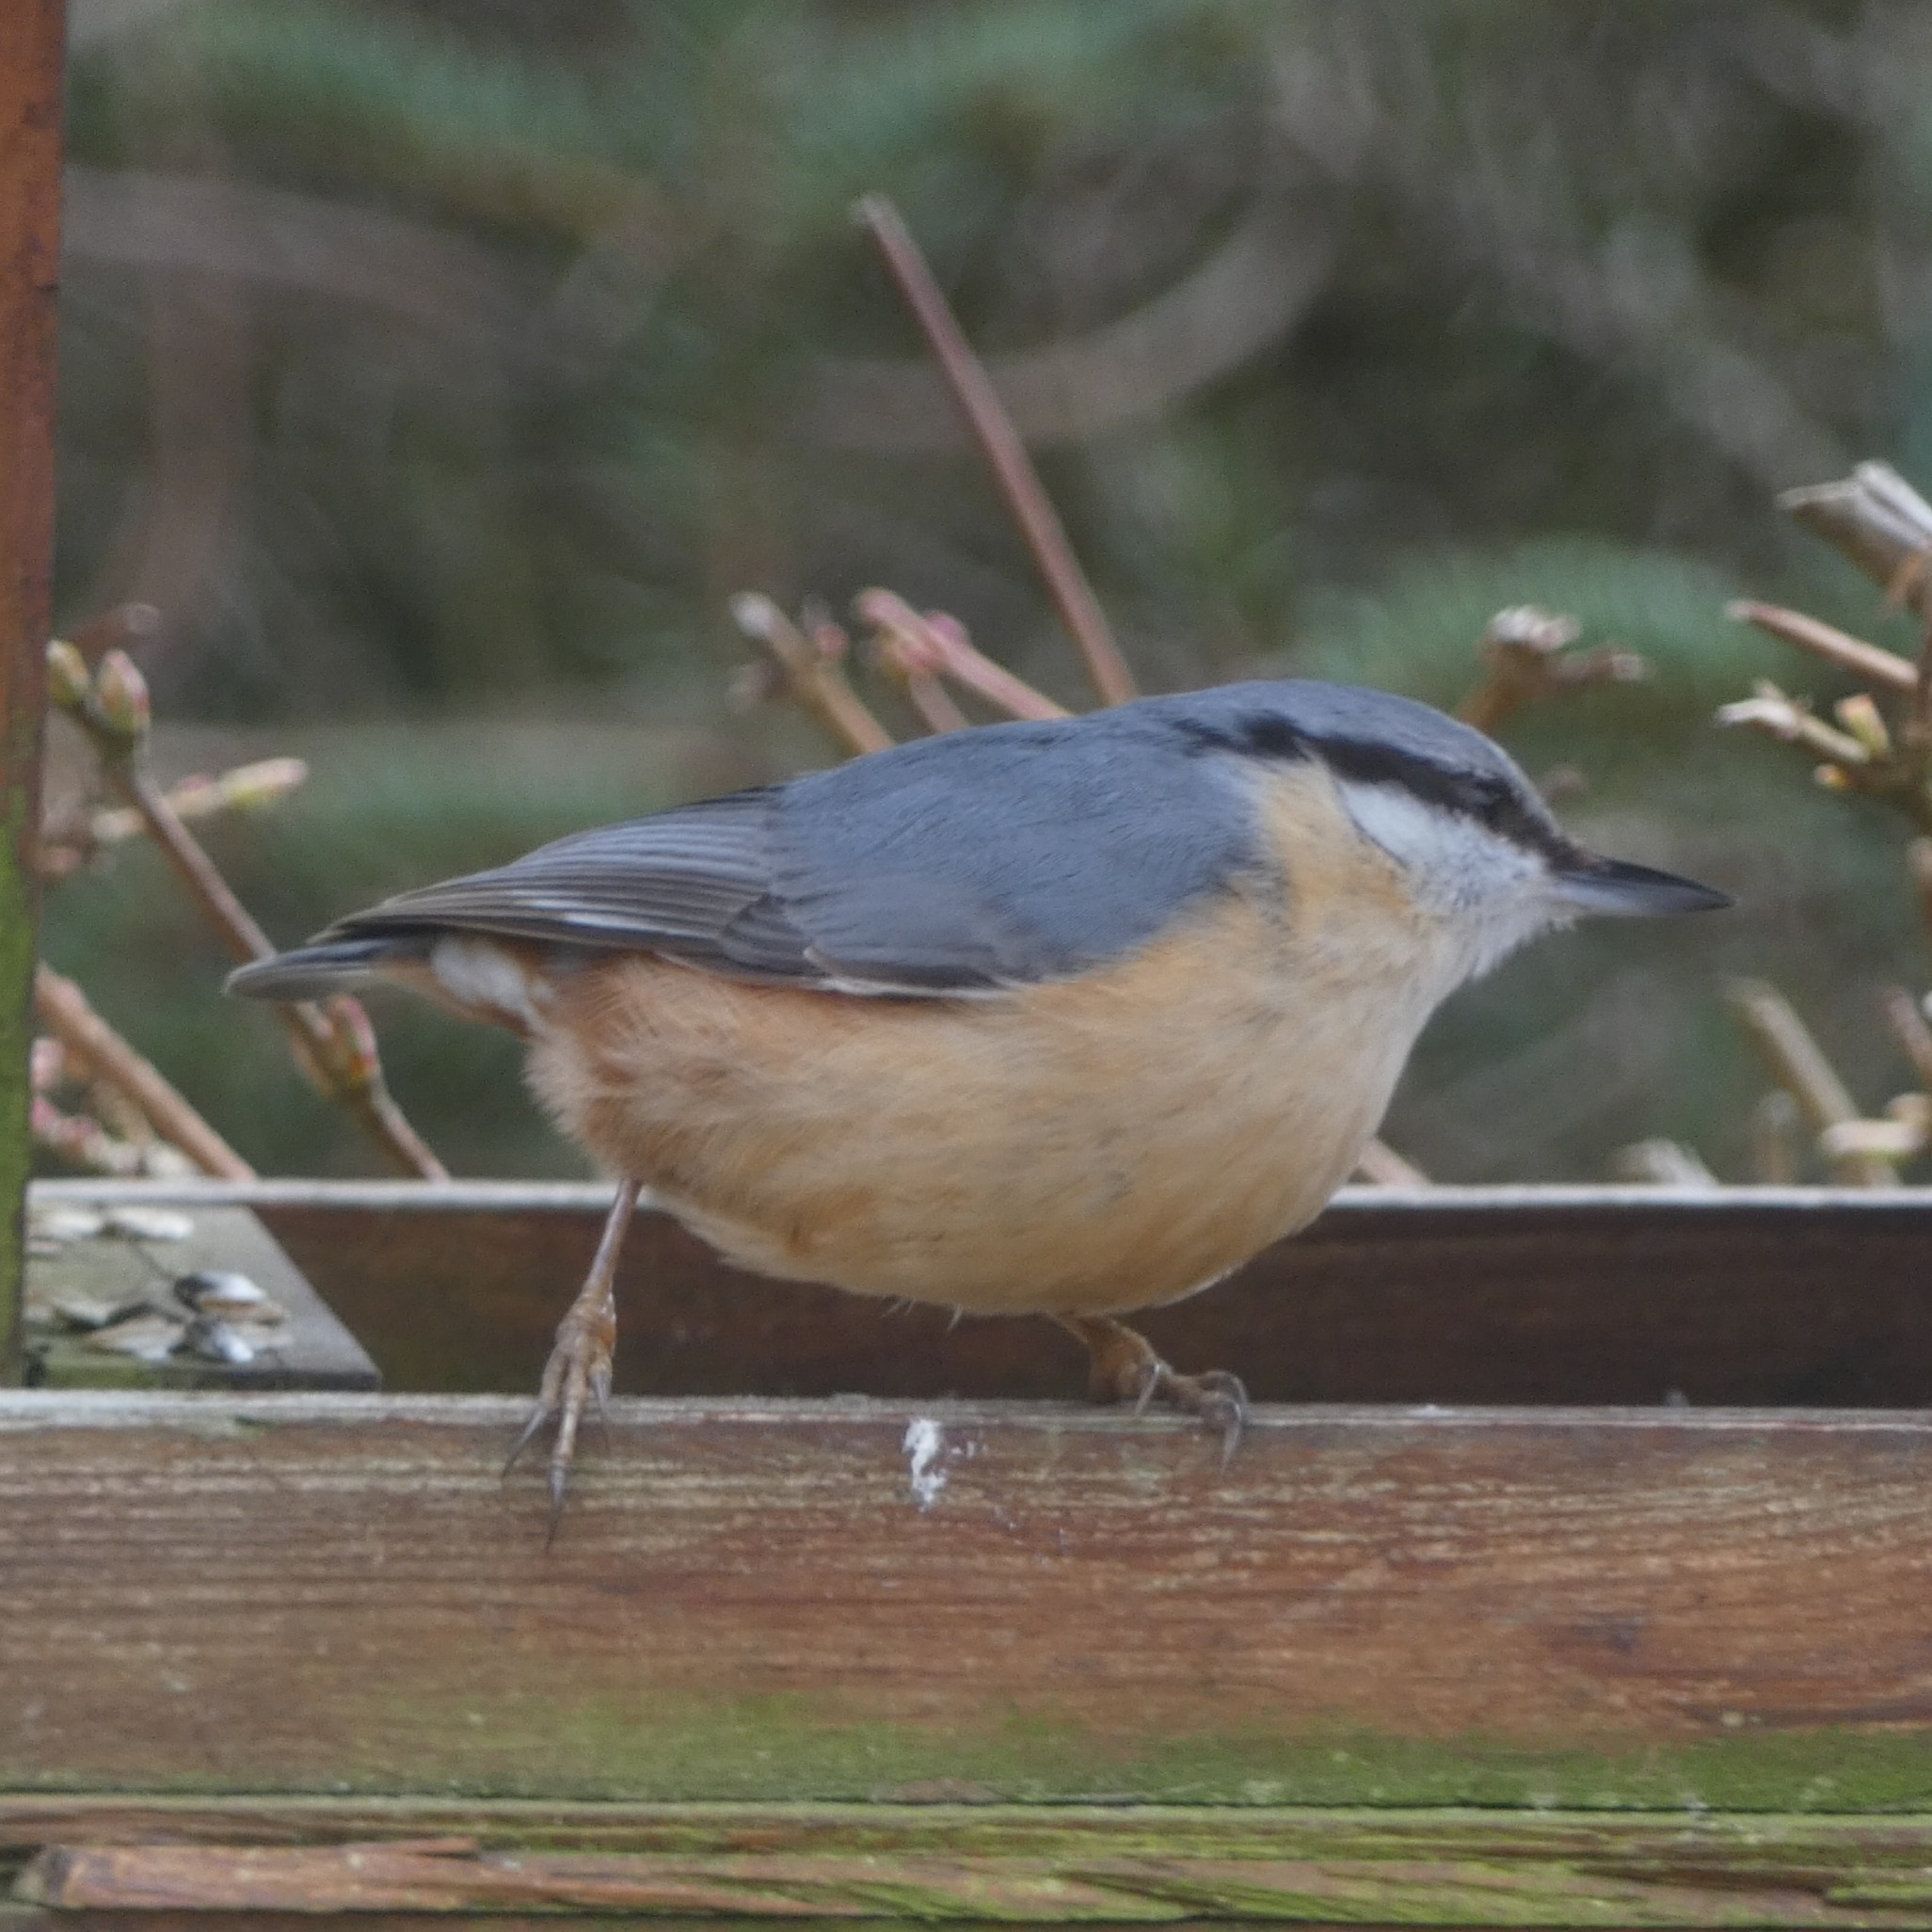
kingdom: Animalia
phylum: Chordata
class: Aves
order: Passeriformes
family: Sittidae
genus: Sitta
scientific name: Sitta europaea
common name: Spætmejse
